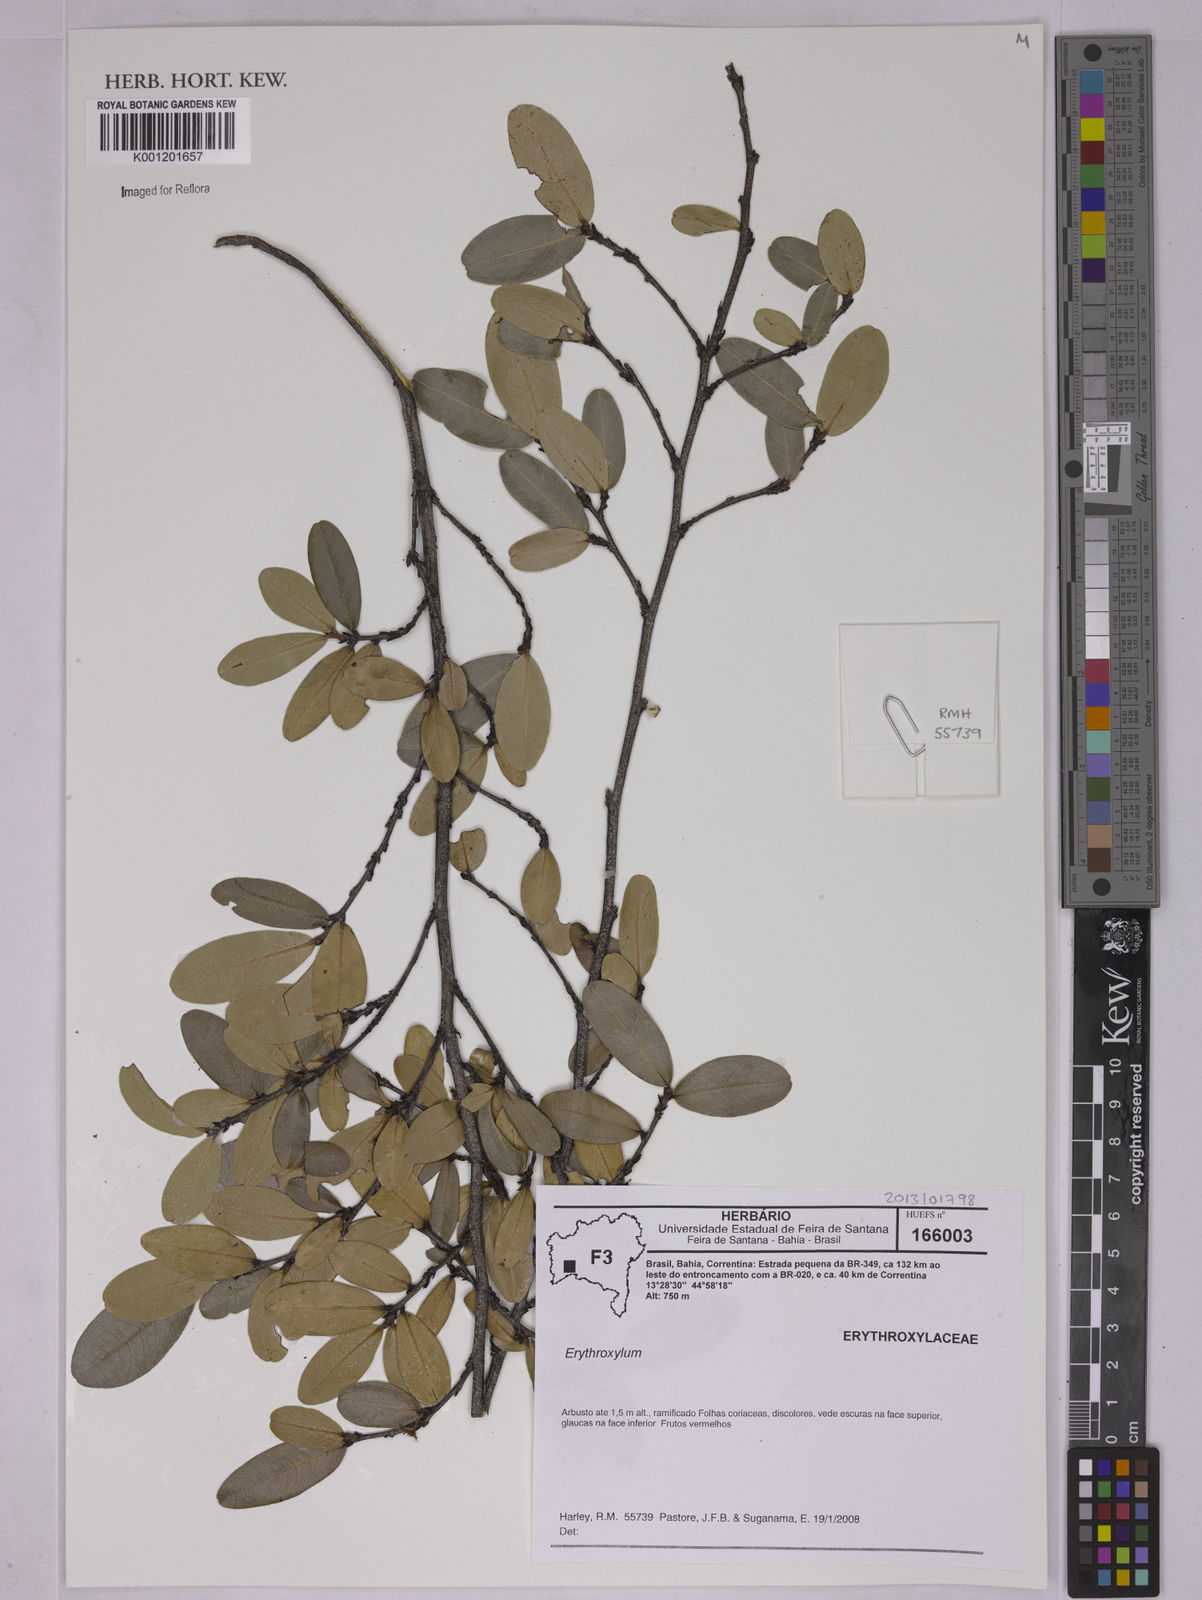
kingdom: Plantae
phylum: Tracheophyta
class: Magnoliopsida
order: Malpighiales
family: Erythroxylaceae
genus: Erythroxylum
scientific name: Erythroxylum
